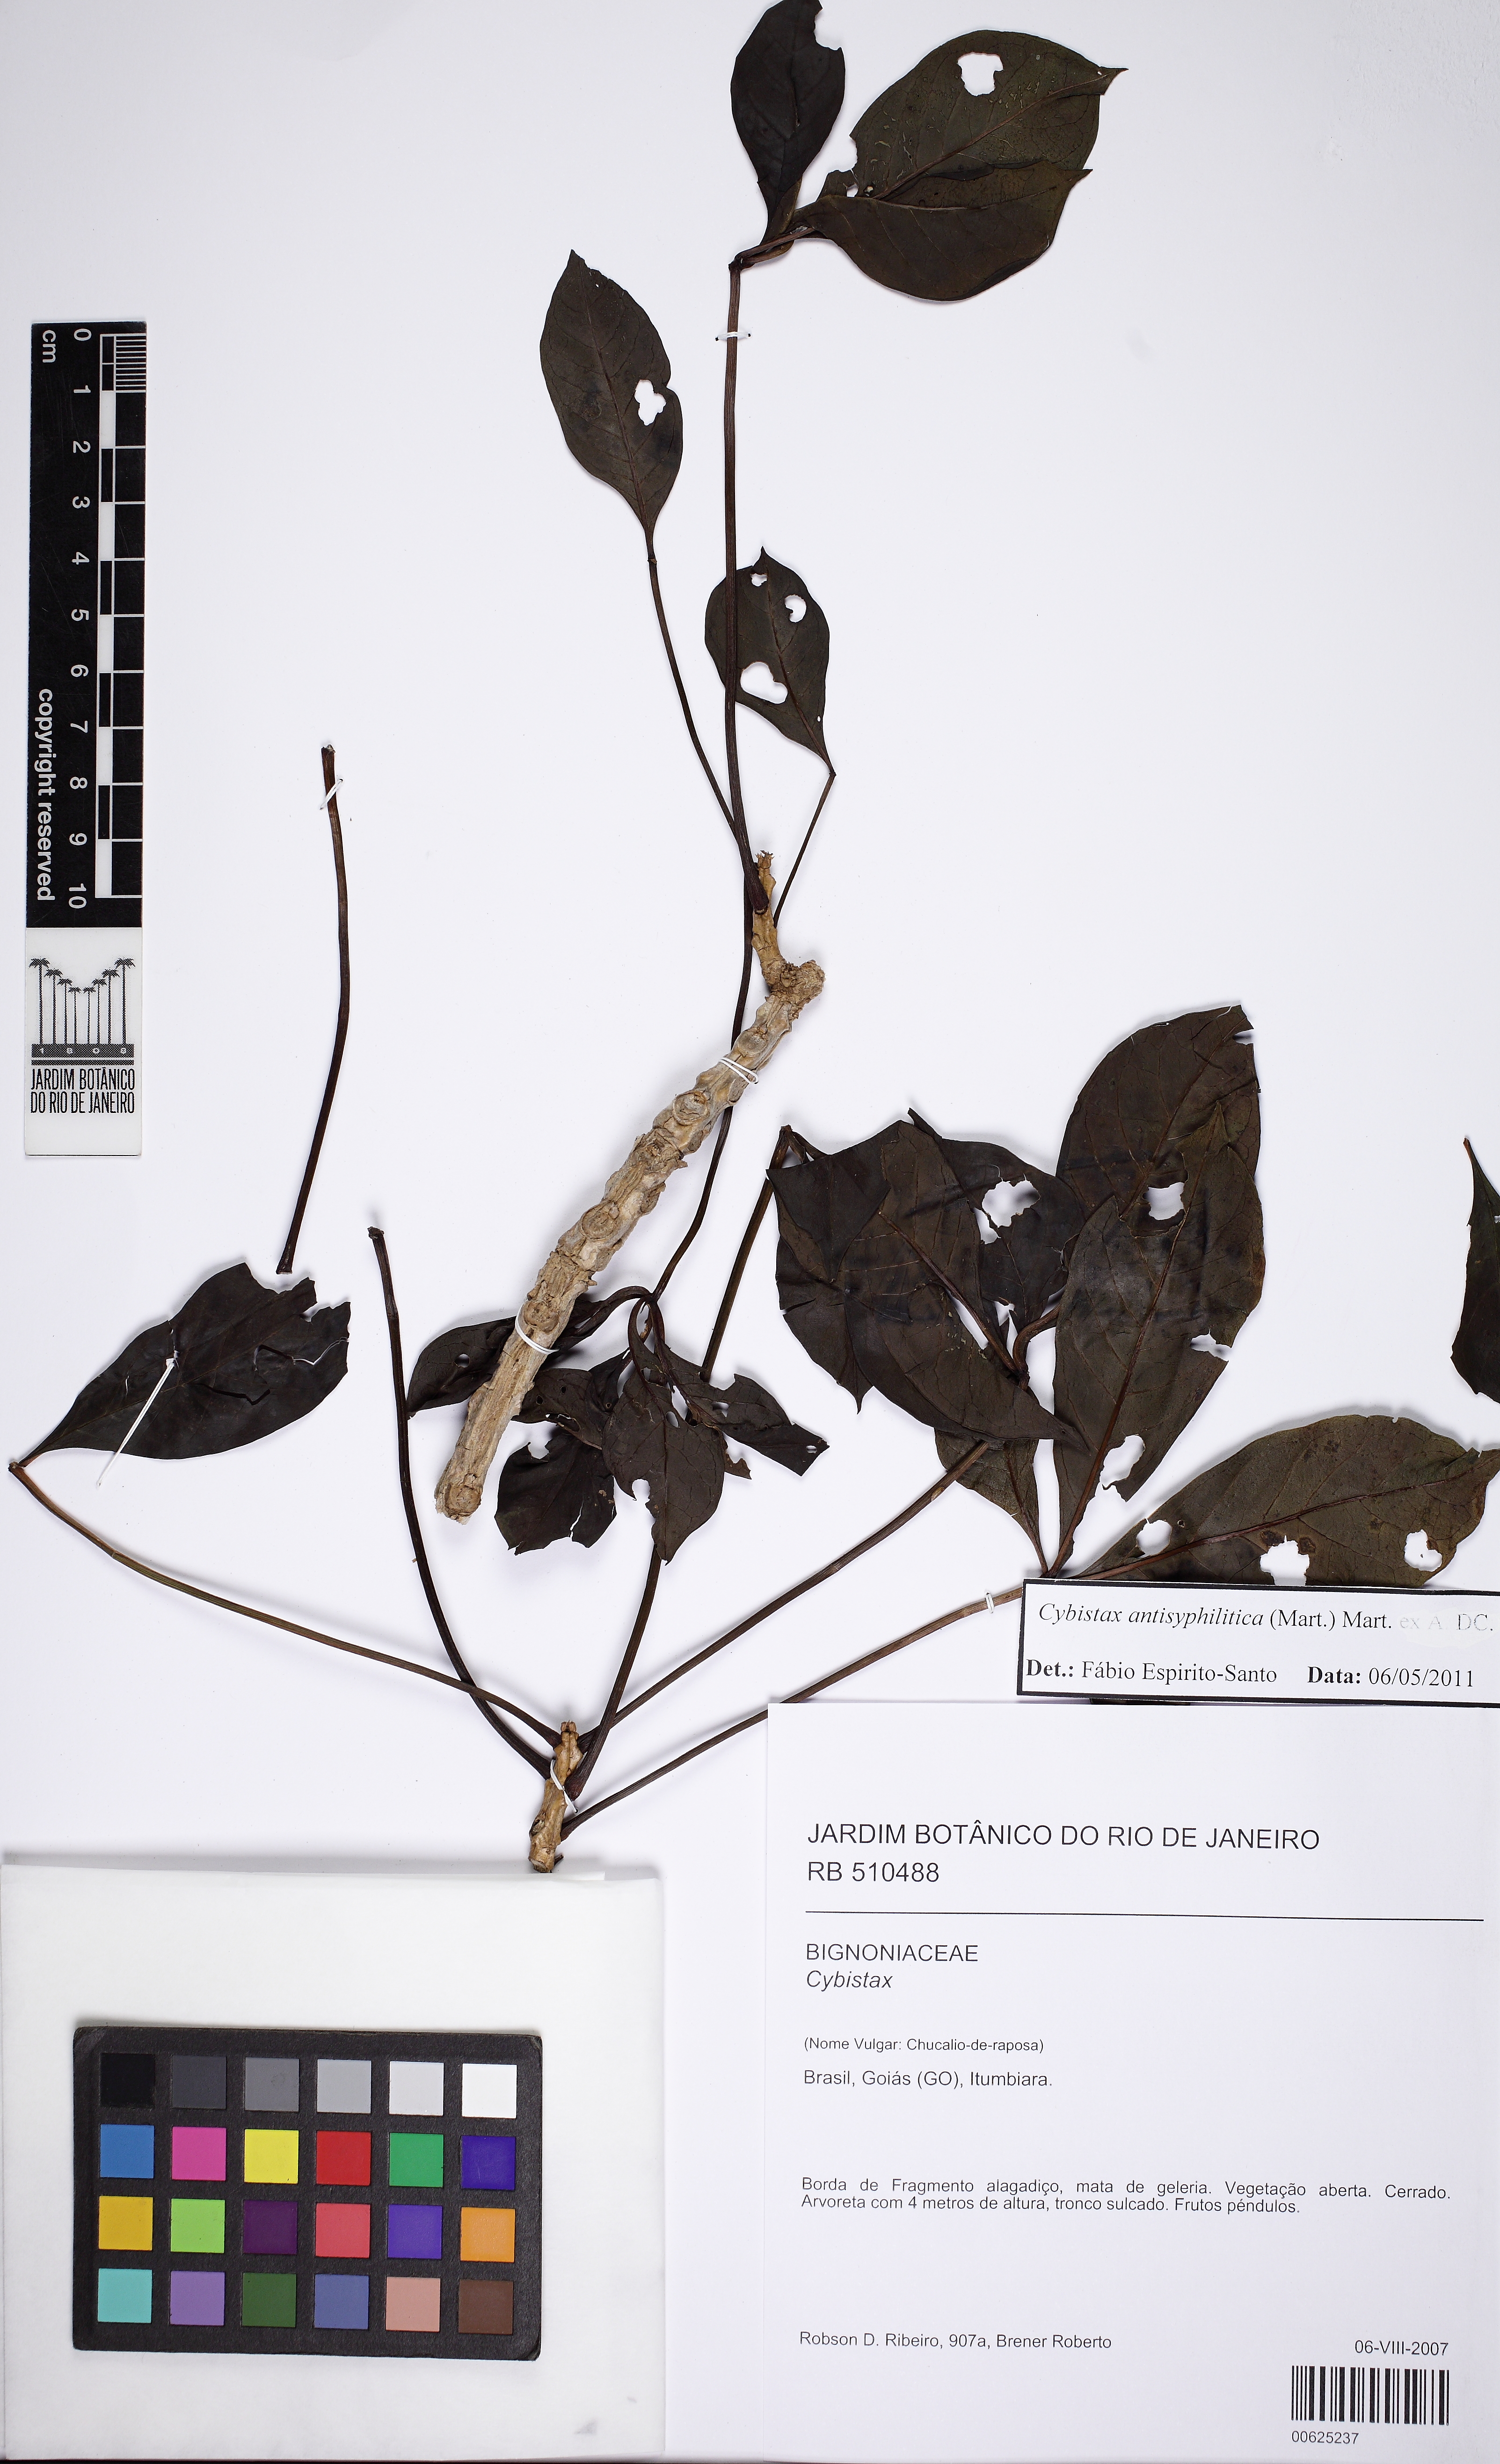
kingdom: Plantae
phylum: Tracheophyta
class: Magnoliopsida
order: Lamiales
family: Bignoniaceae
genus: Cybistax
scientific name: Cybistax antisyphilitica
